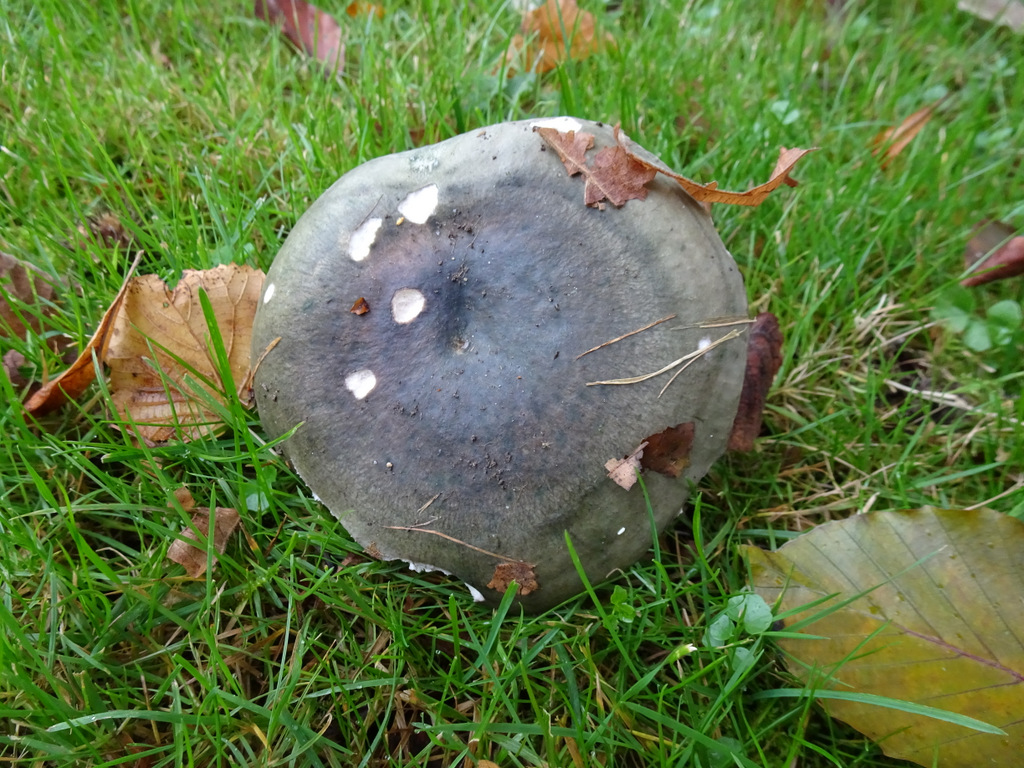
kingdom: Fungi
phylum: Basidiomycota
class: Agaricomycetes
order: Russulales
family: Russulaceae
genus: Russula
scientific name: Russula cyanoxantha
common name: broget skørhat
